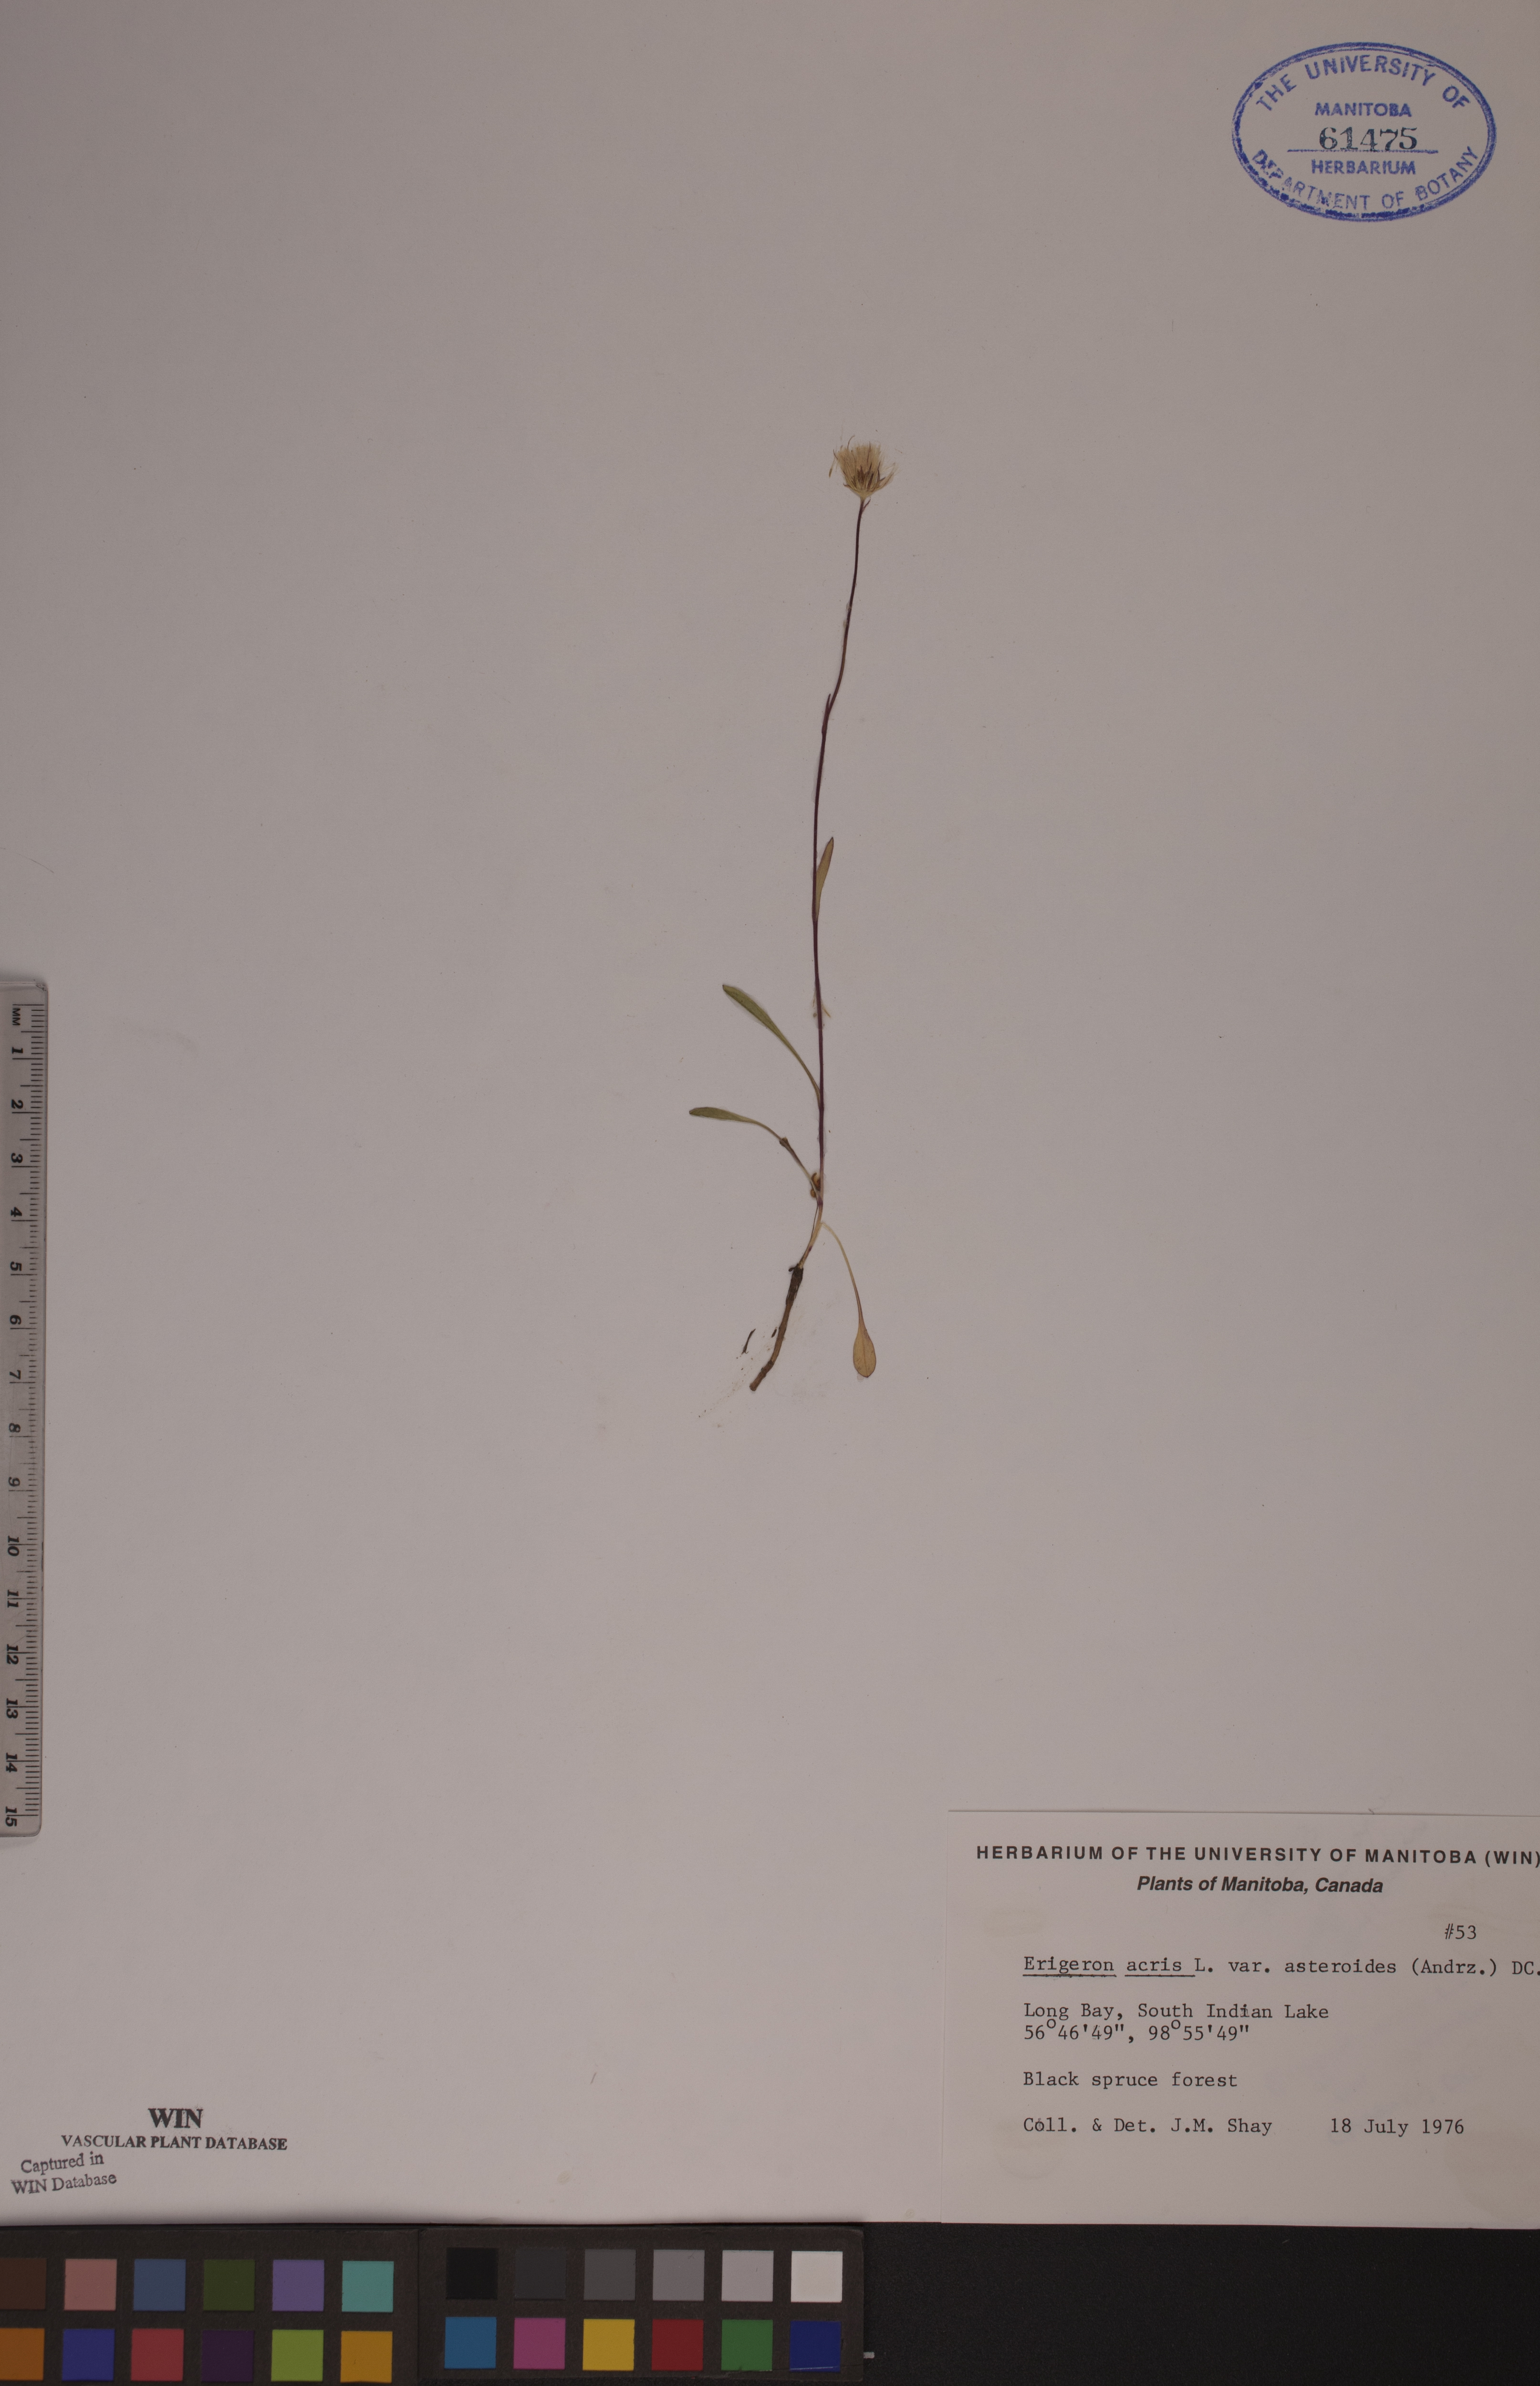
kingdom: Plantae
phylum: Tracheophyta
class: Magnoliopsida
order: Asterales
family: Asteraceae
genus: Erigeron
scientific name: Erigeron podolicus
